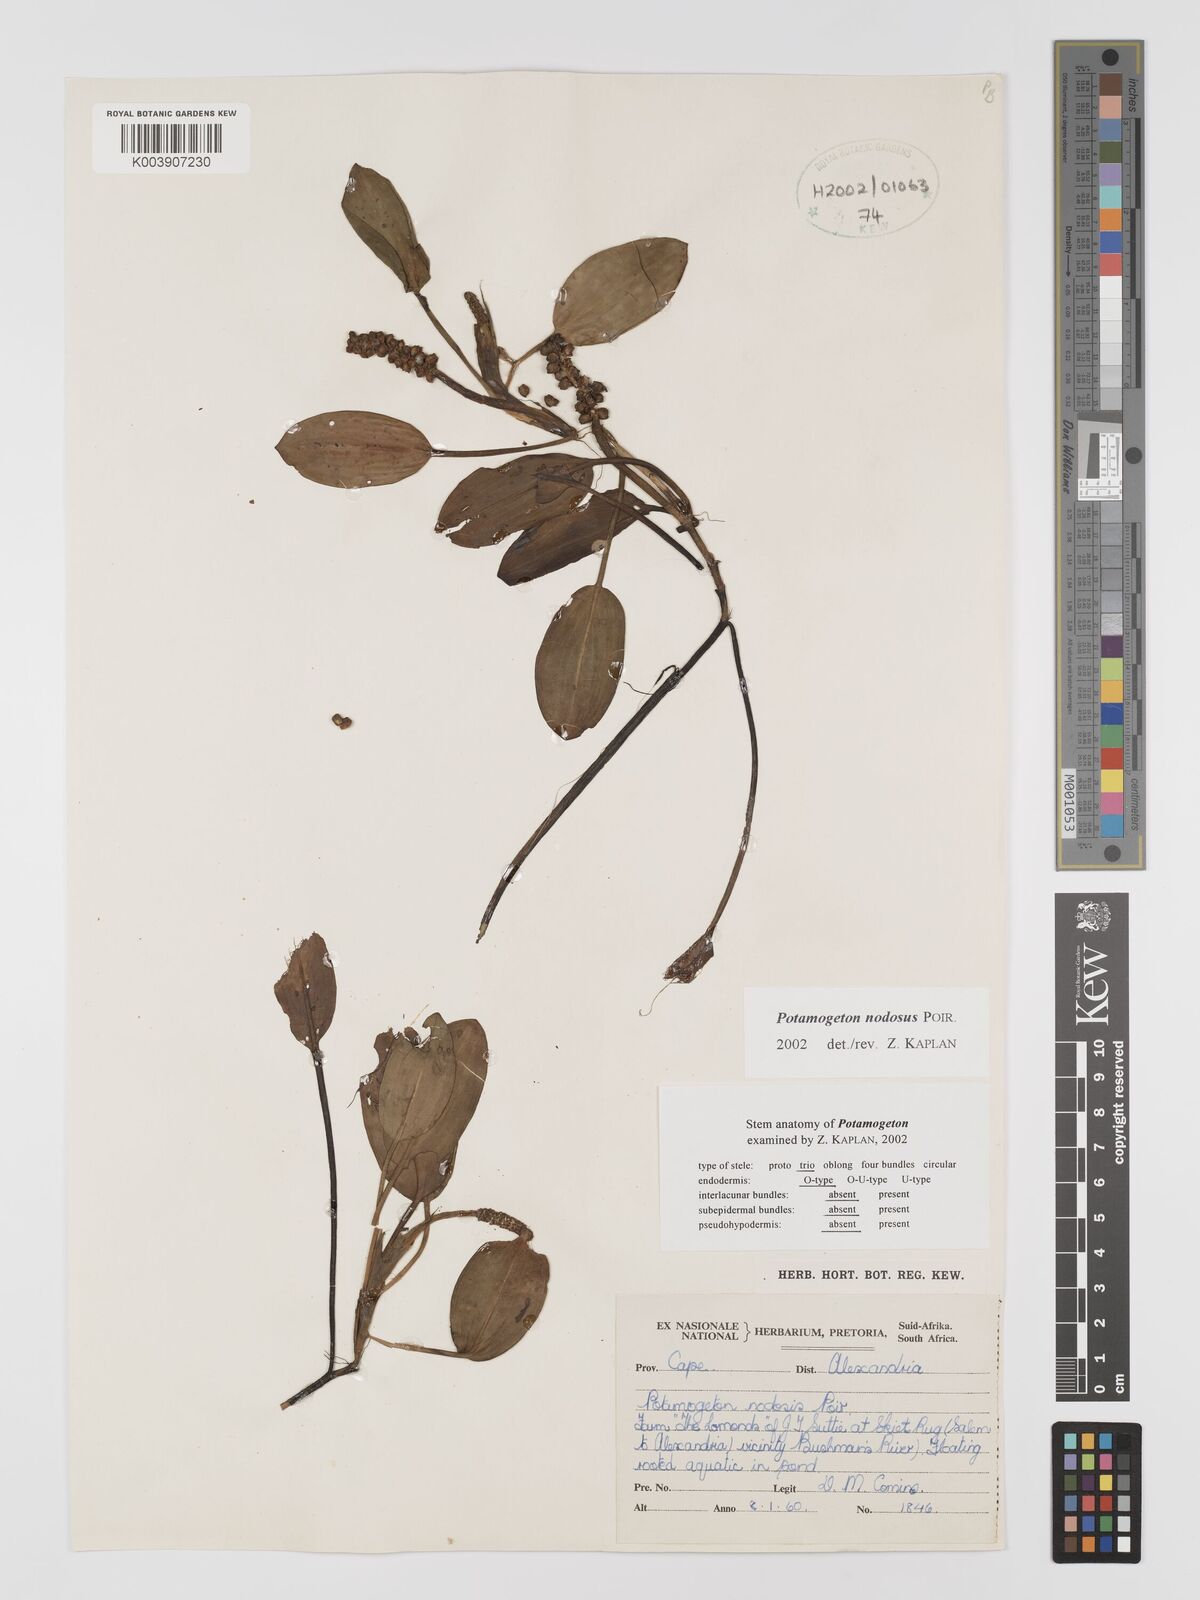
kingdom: Plantae
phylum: Tracheophyta
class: Liliopsida
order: Alismatales
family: Potamogetonaceae
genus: Potamogeton
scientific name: Potamogeton nodosus
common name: Loddon pondweed
